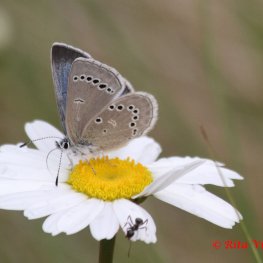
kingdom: Animalia
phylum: Arthropoda
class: Insecta
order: Lepidoptera
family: Lycaenidae
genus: Glaucopsyche
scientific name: Glaucopsyche lygdamus
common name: Silvery Blue
